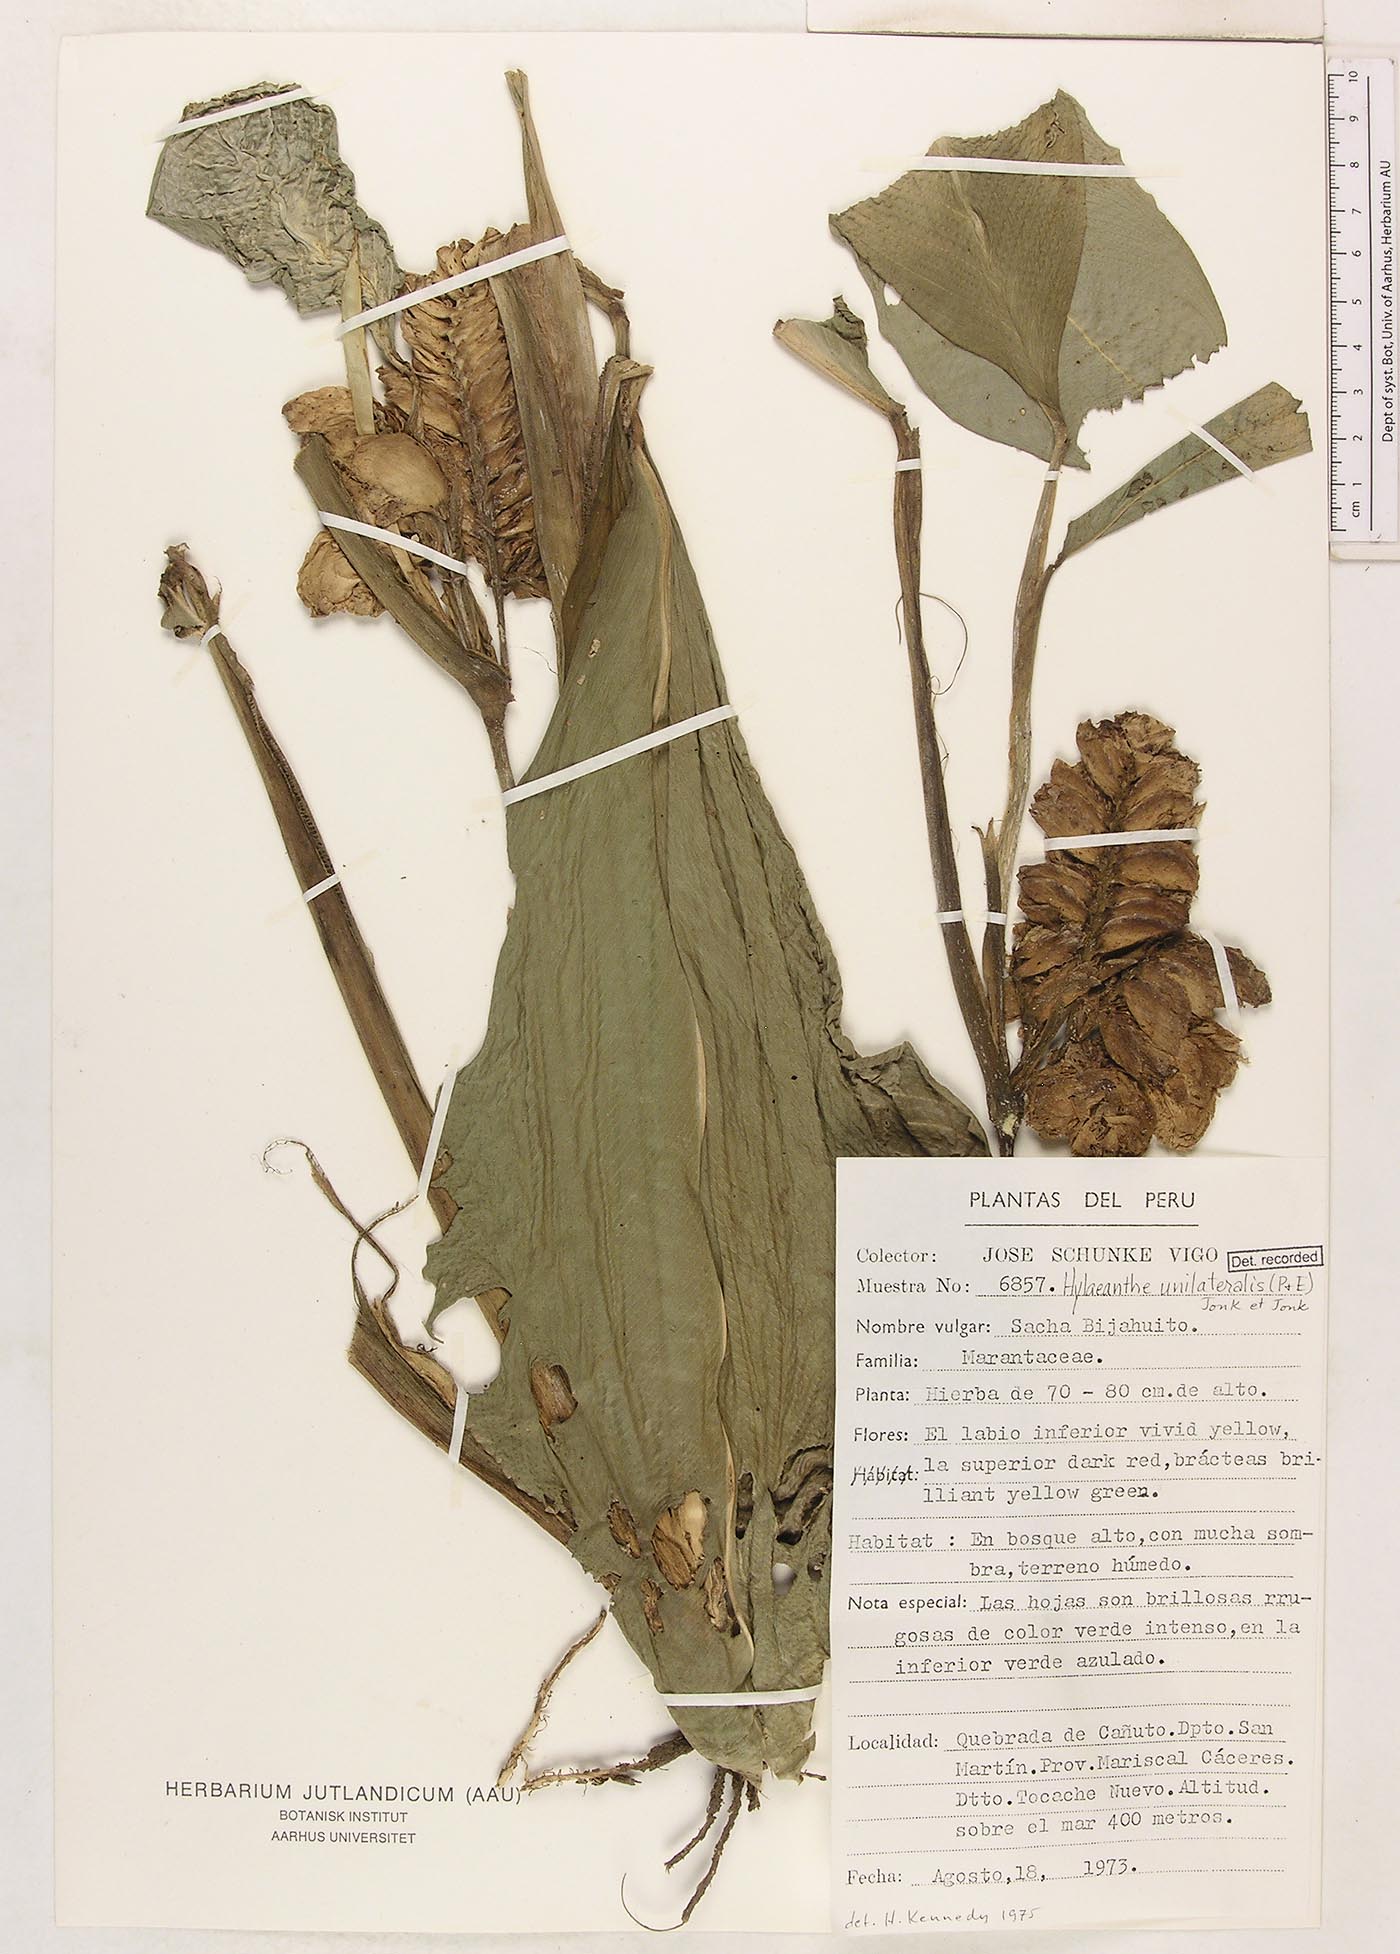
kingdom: Plantae
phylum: Tracheophyta
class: Liliopsida
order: Zingiberales
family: Marantaceae
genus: Hylaeanthe
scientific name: Hylaeanthe unilateralis
